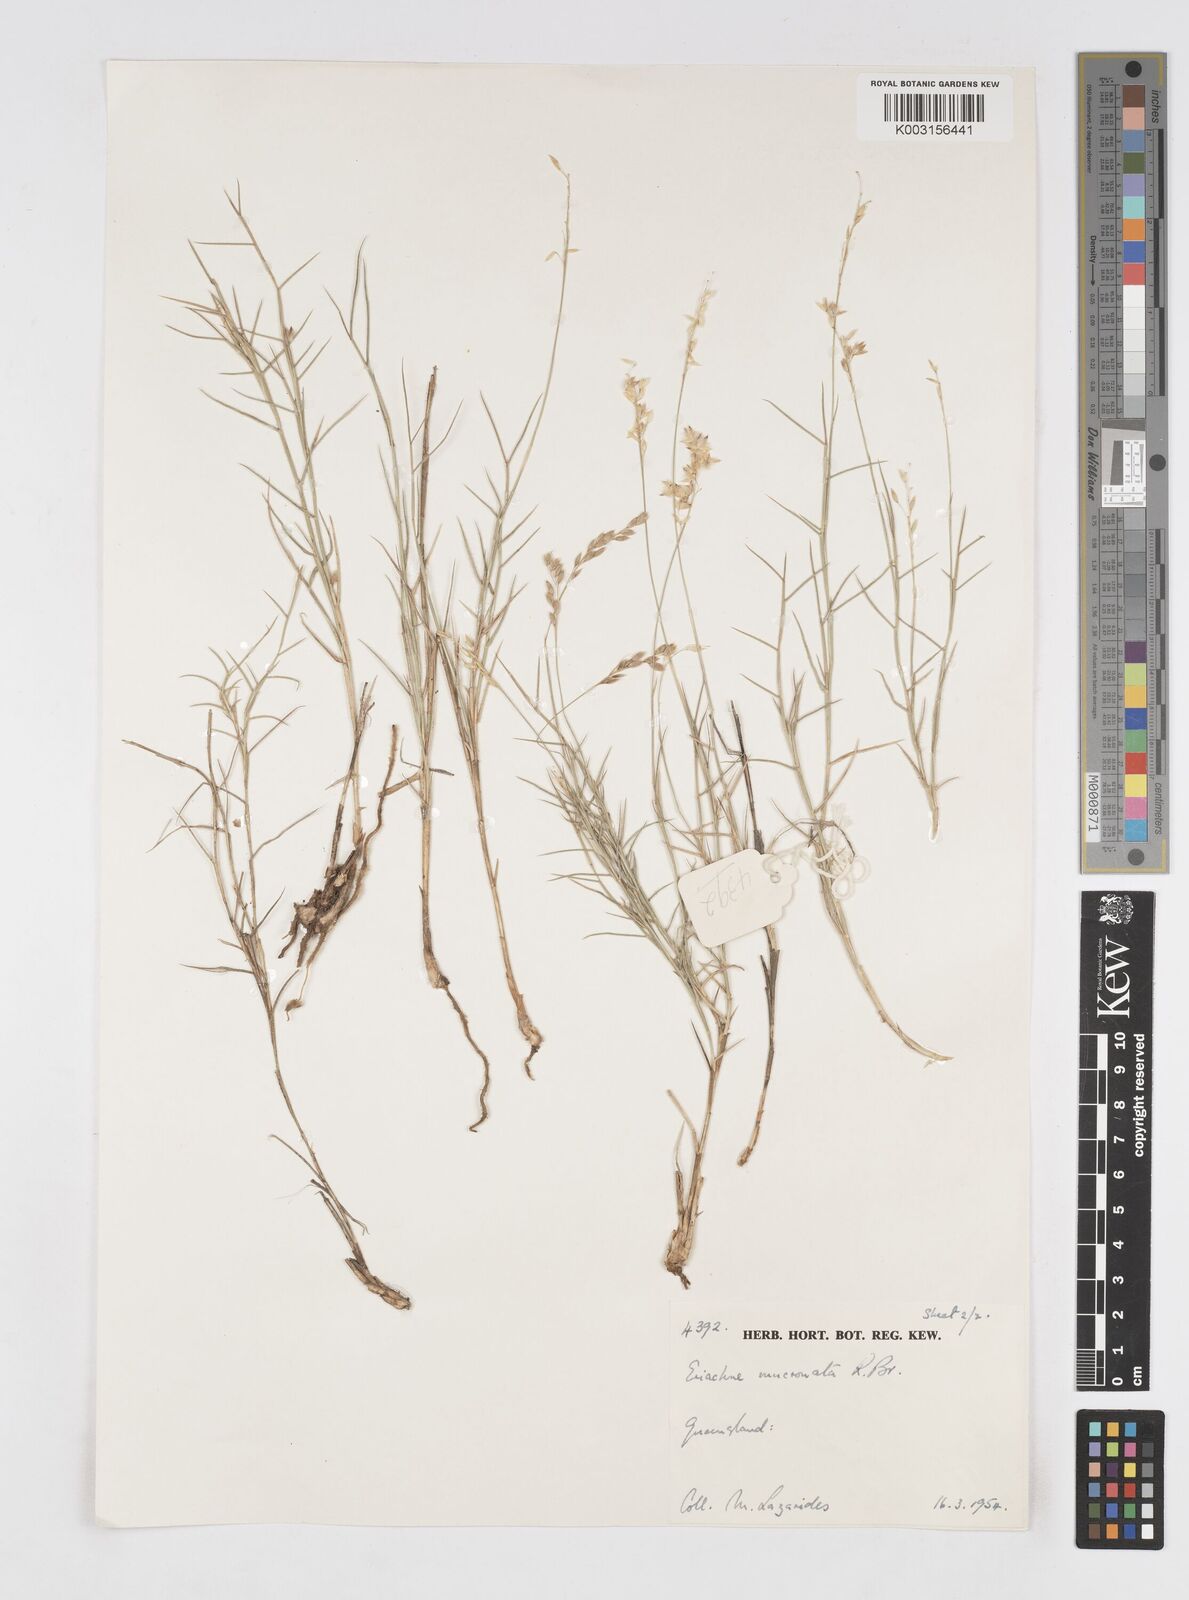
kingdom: Plantae
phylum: Tracheophyta
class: Liliopsida
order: Poales
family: Poaceae
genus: Eriachne
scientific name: Eriachne mucronata
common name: Mountain wanderrie grass
